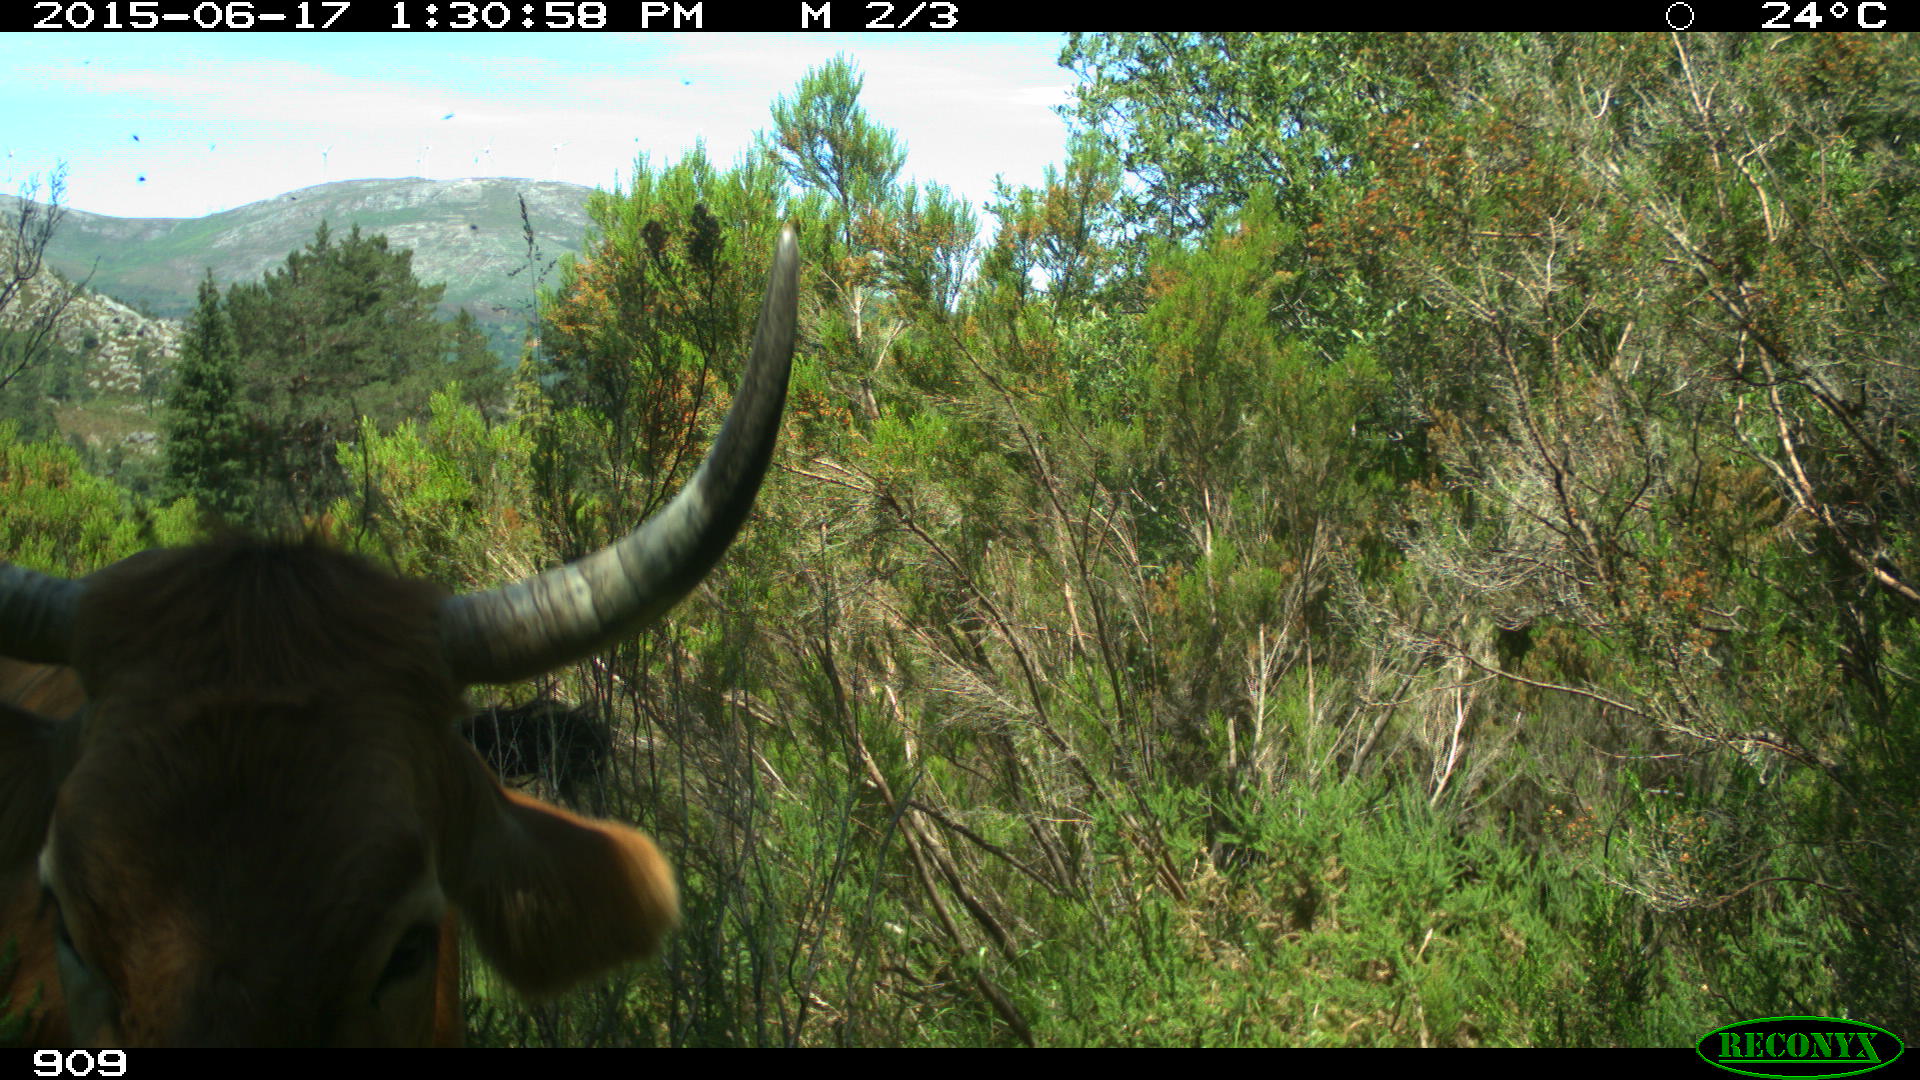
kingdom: Animalia
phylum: Chordata
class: Mammalia
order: Artiodactyla
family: Bovidae
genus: Bos
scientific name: Bos taurus
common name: Domesticated cattle
